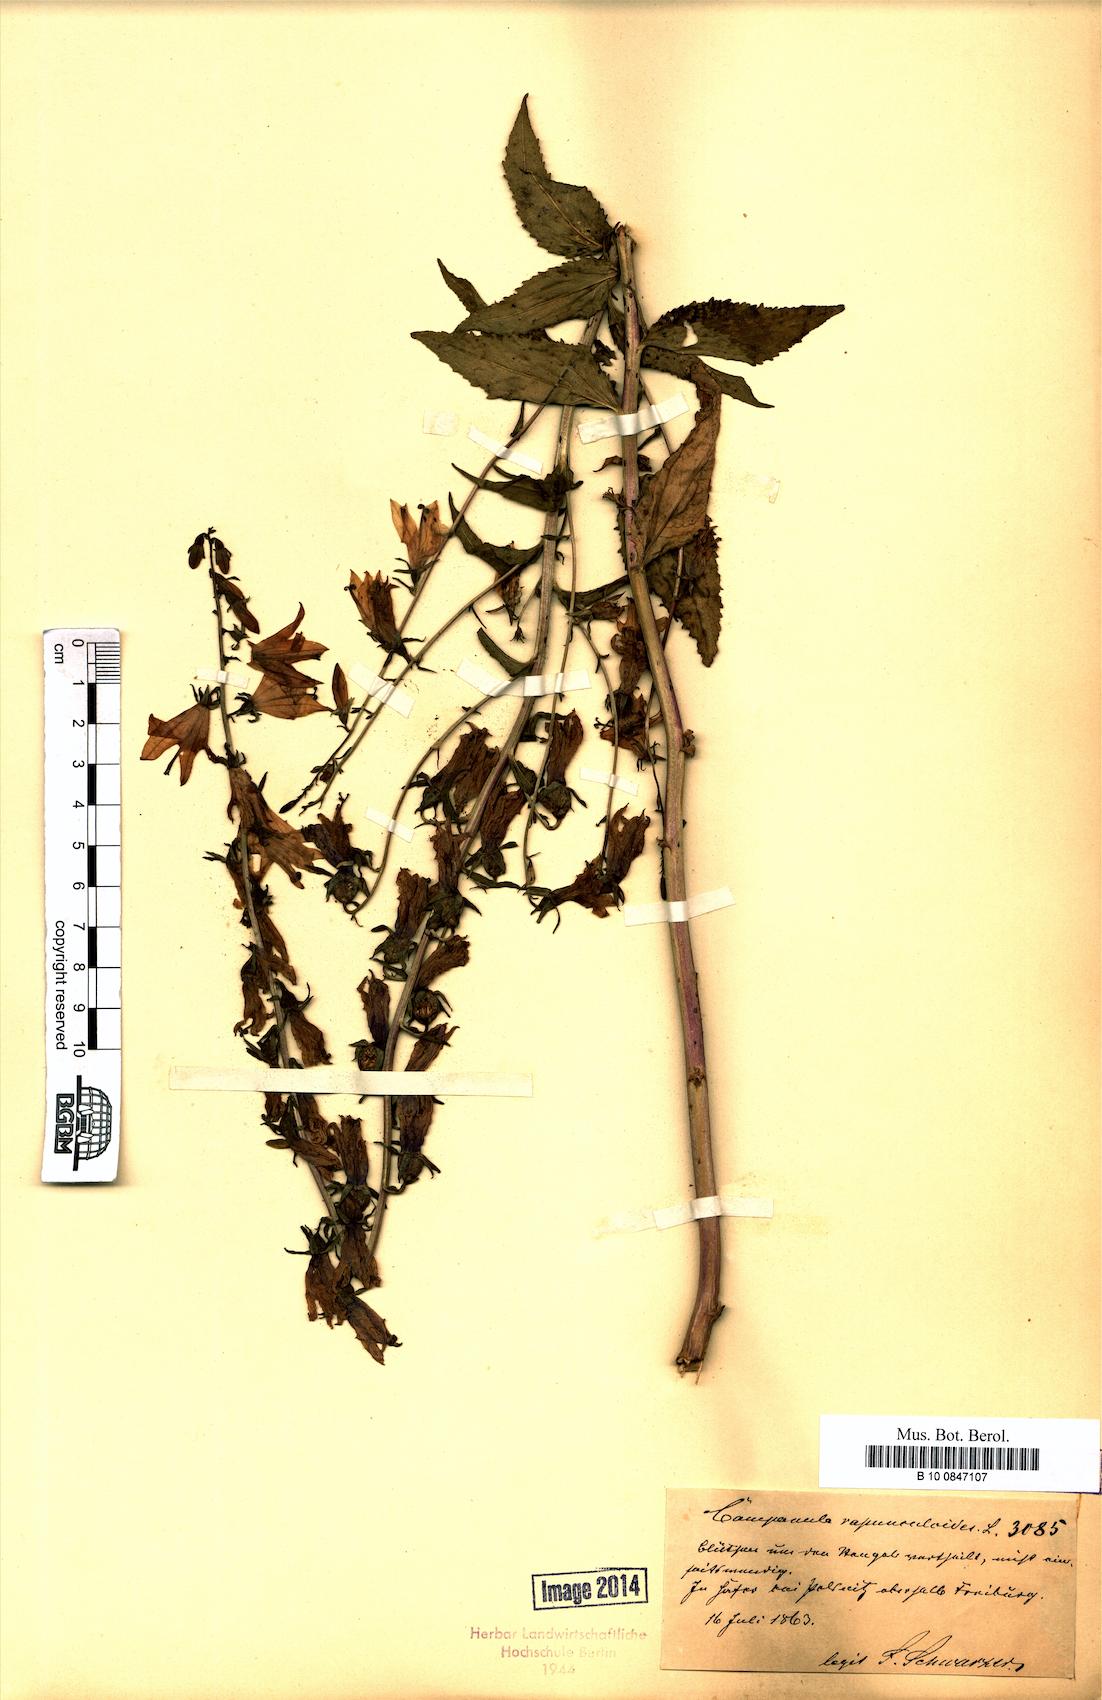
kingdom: Plantae
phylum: Tracheophyta
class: Magnoliopsida
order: Asterales
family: Campanulaceae
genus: Campanula
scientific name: Campanula rapunculoides
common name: Creeping bellflower
